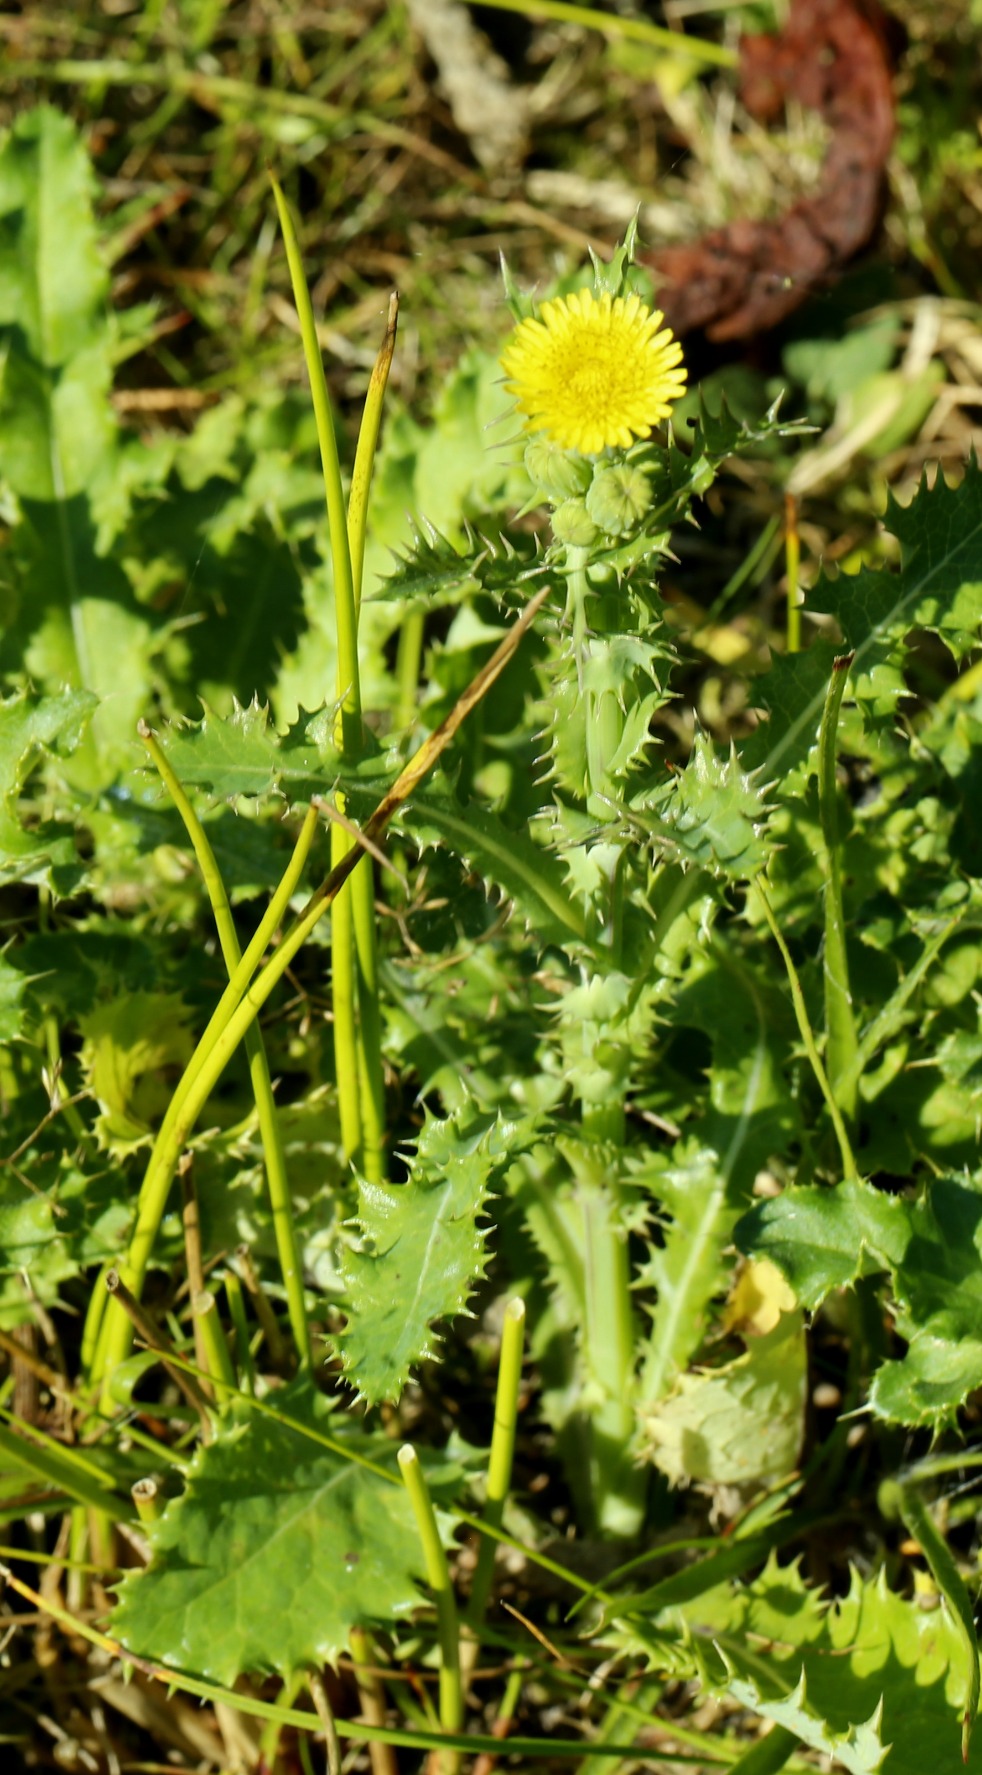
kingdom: Plantae
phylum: Tracheophyta
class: Magnoliopsida
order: Asterales
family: Asteraceae
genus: Sonchus
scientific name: Sonchus asper
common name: Ru svinemælk
